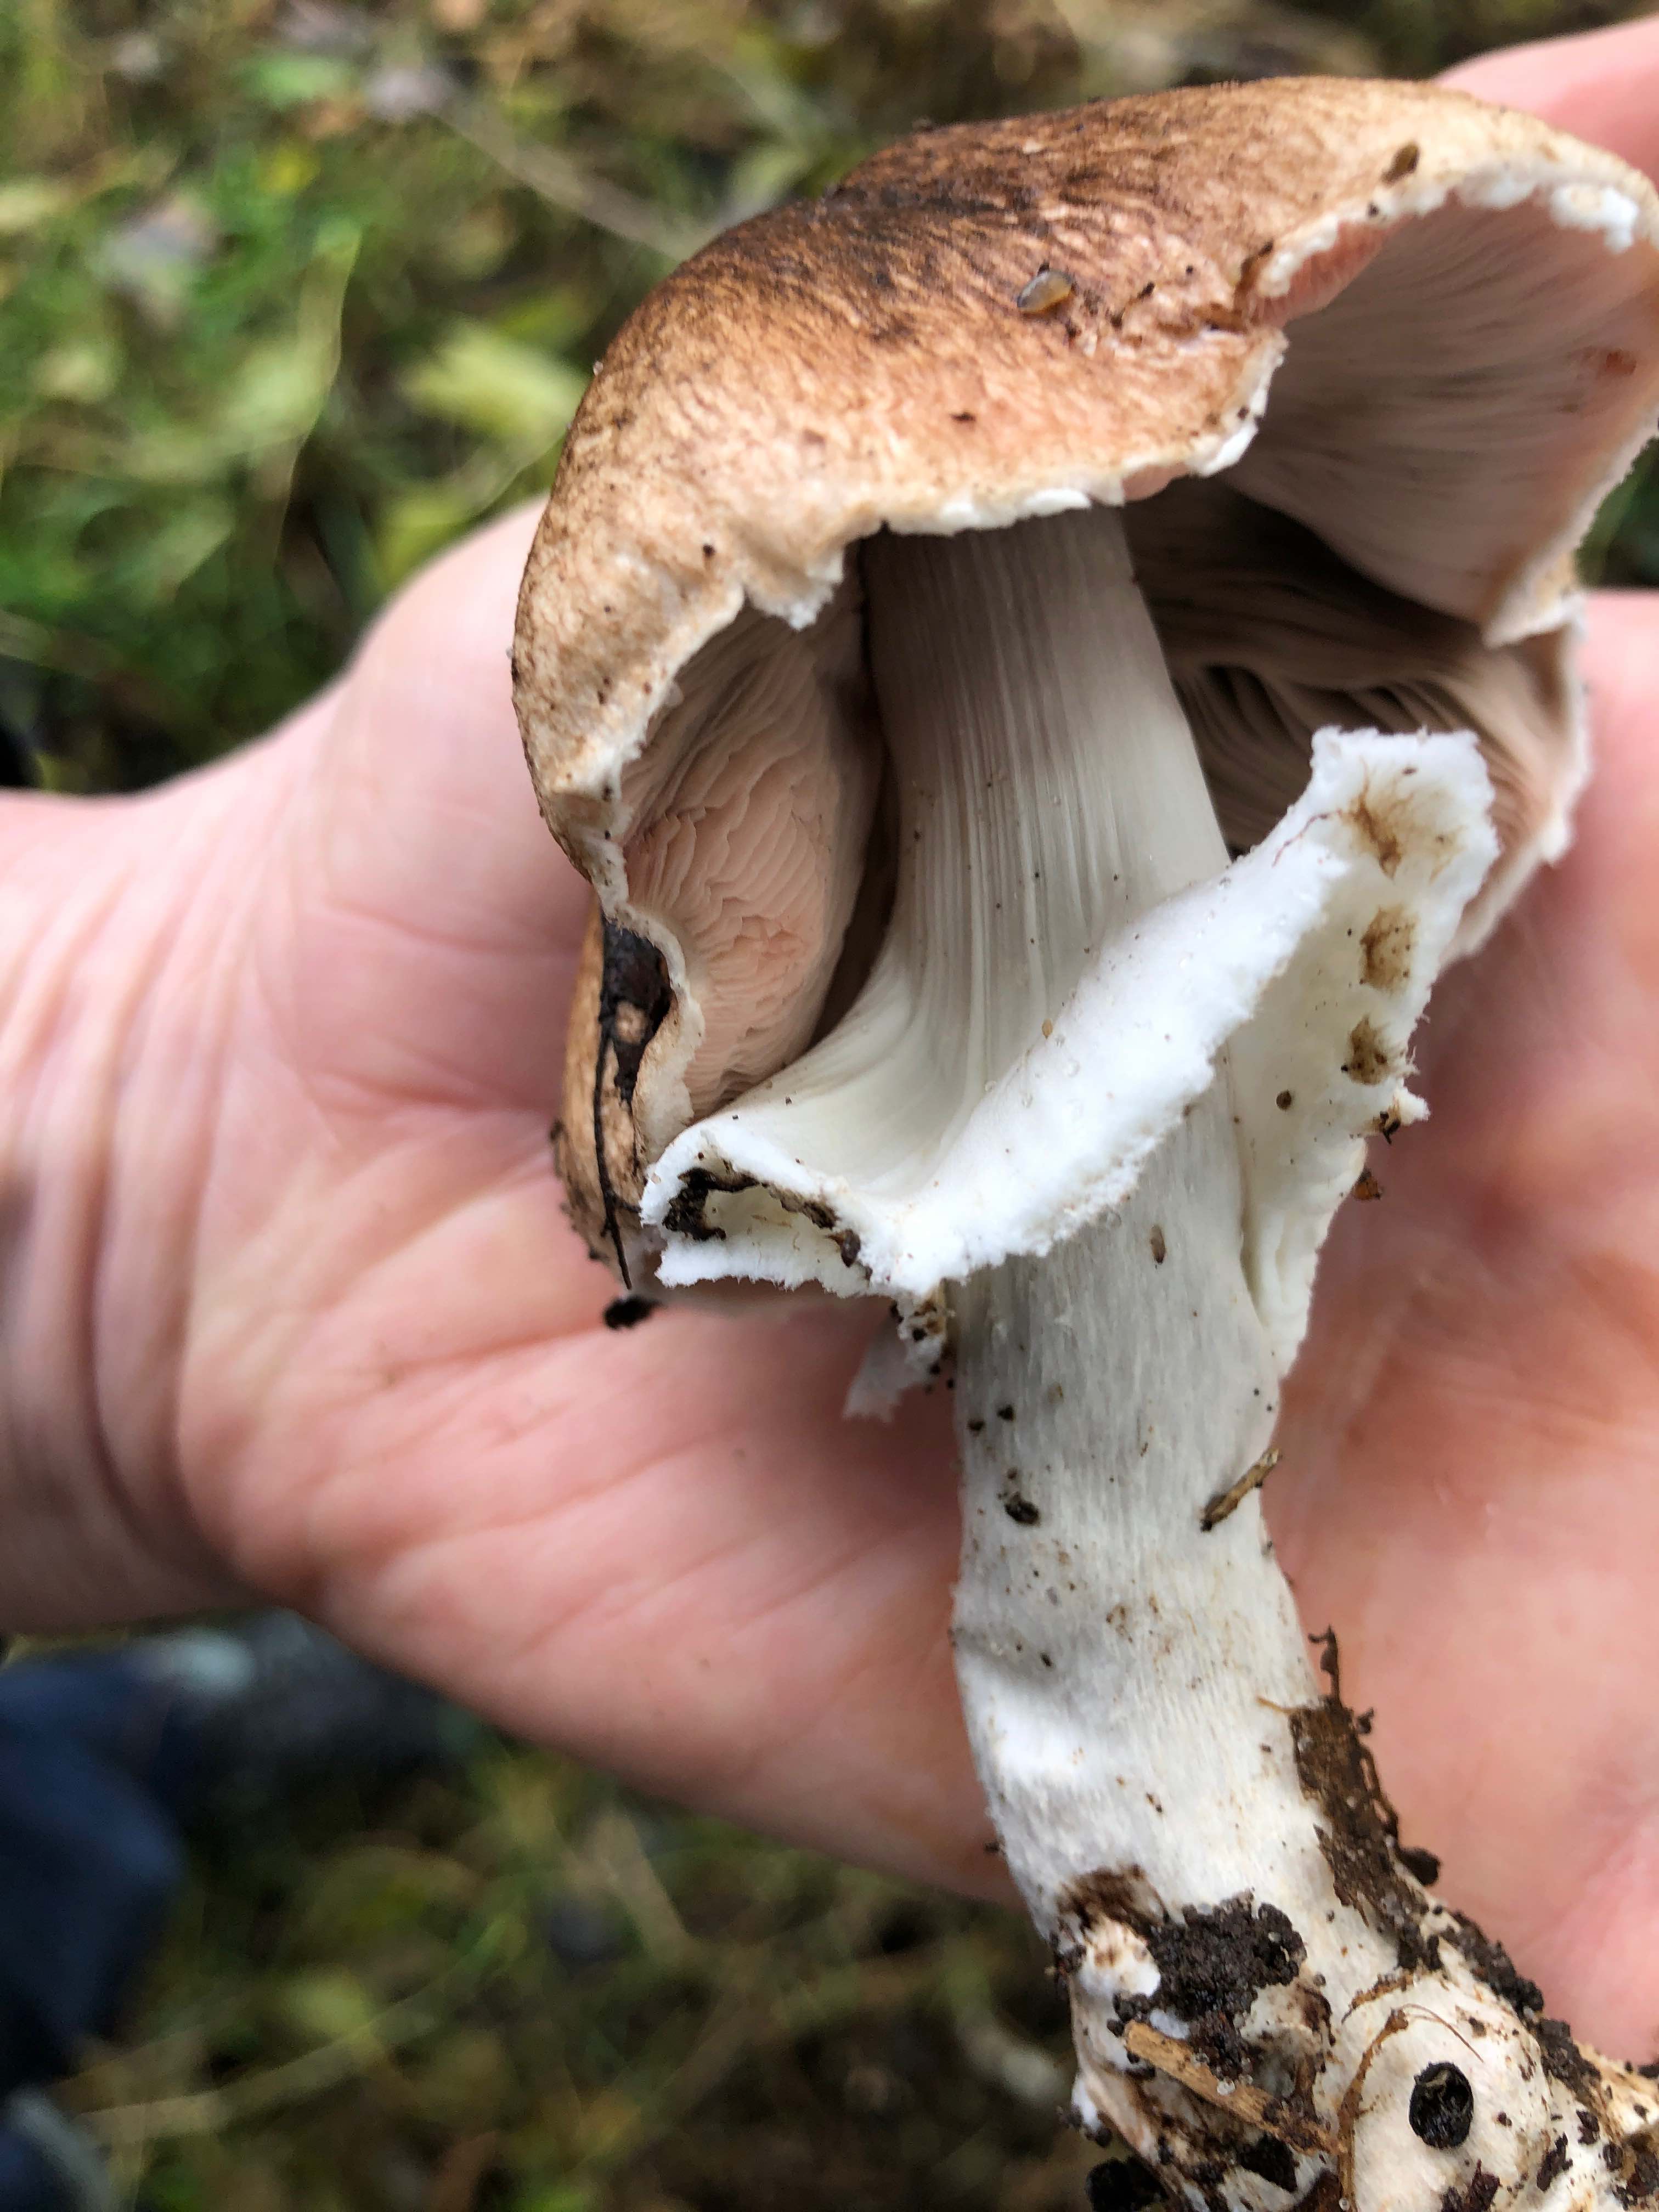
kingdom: Fungi
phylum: Basidiomycota
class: Agaricomycetes
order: Agaricales
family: Agaricaceae
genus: Agaricus
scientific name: Agaricus
